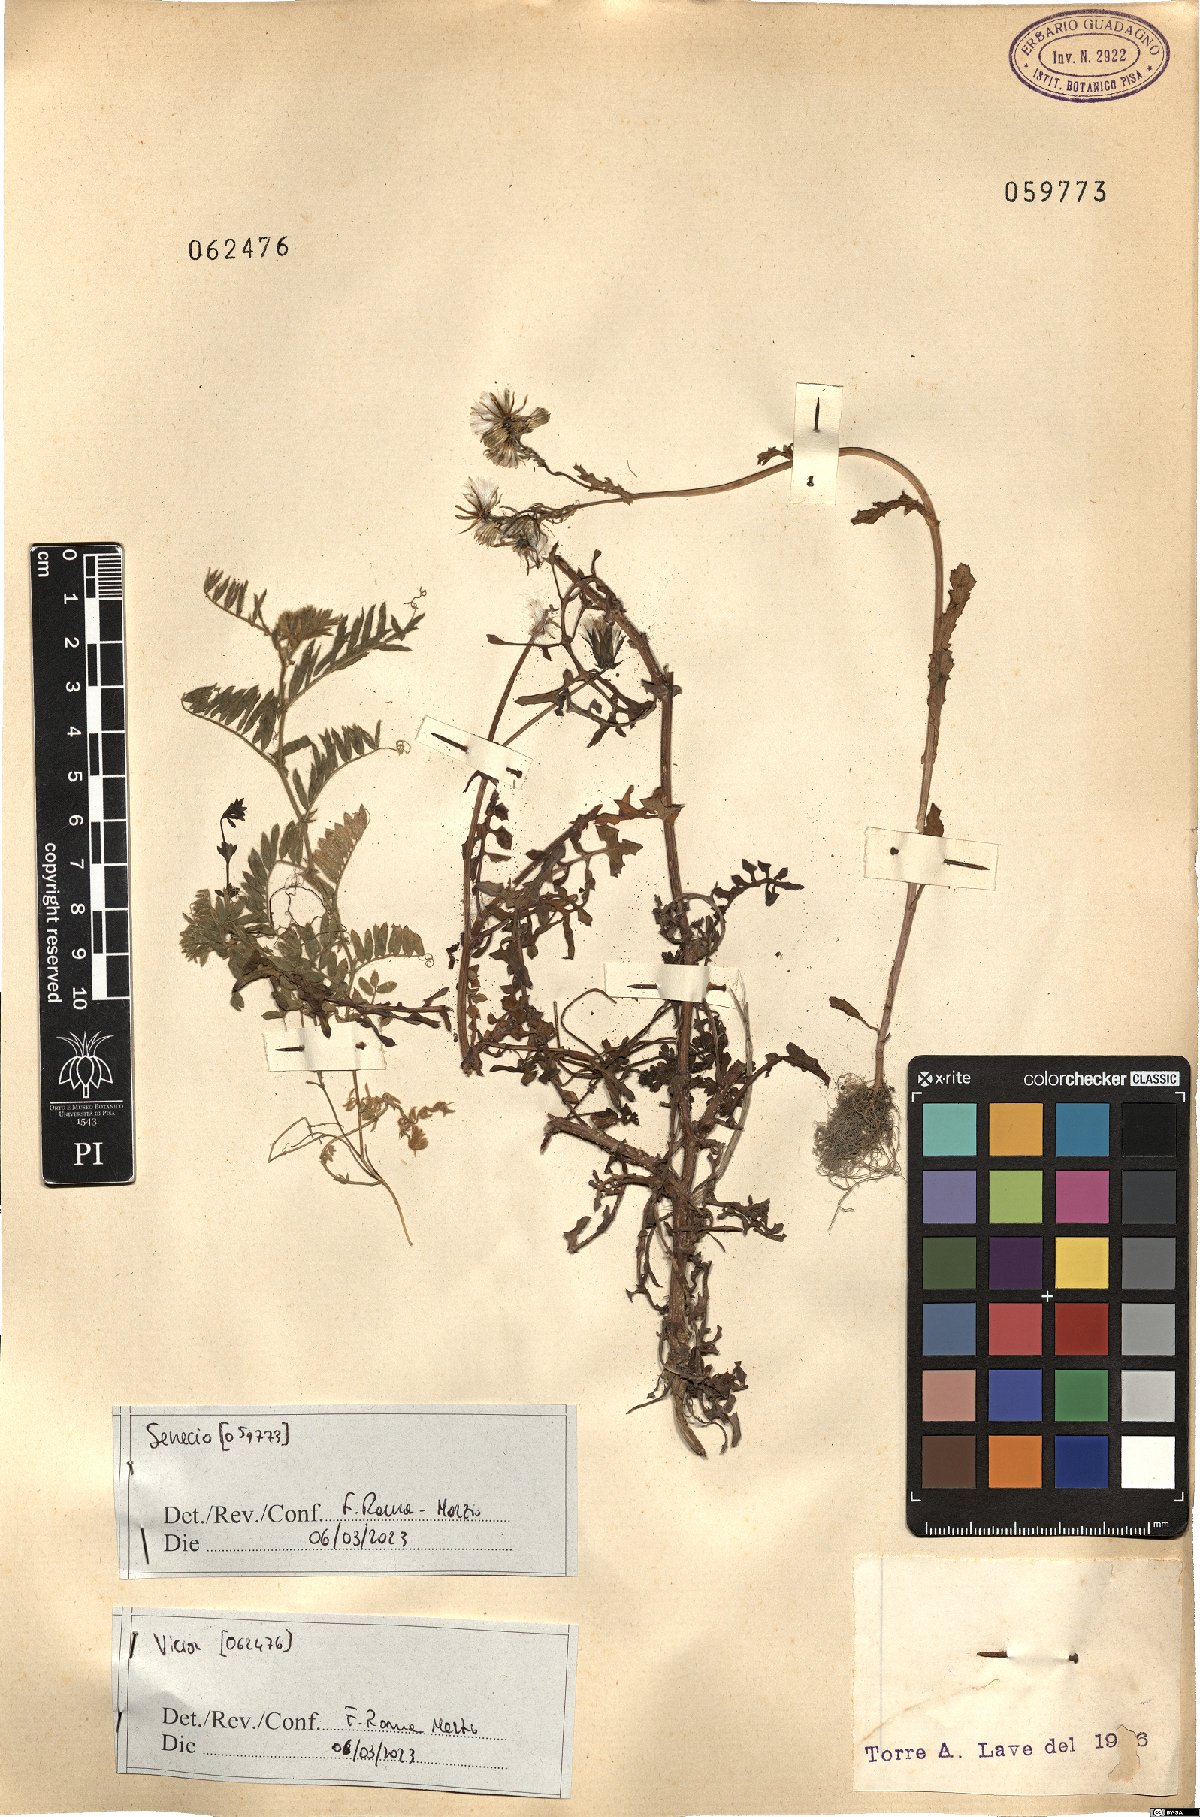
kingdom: Plantae
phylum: Tracheophyta
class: Magnoliopsida
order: Fabales
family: Fabaceae
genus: Vicia
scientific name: Vicia
